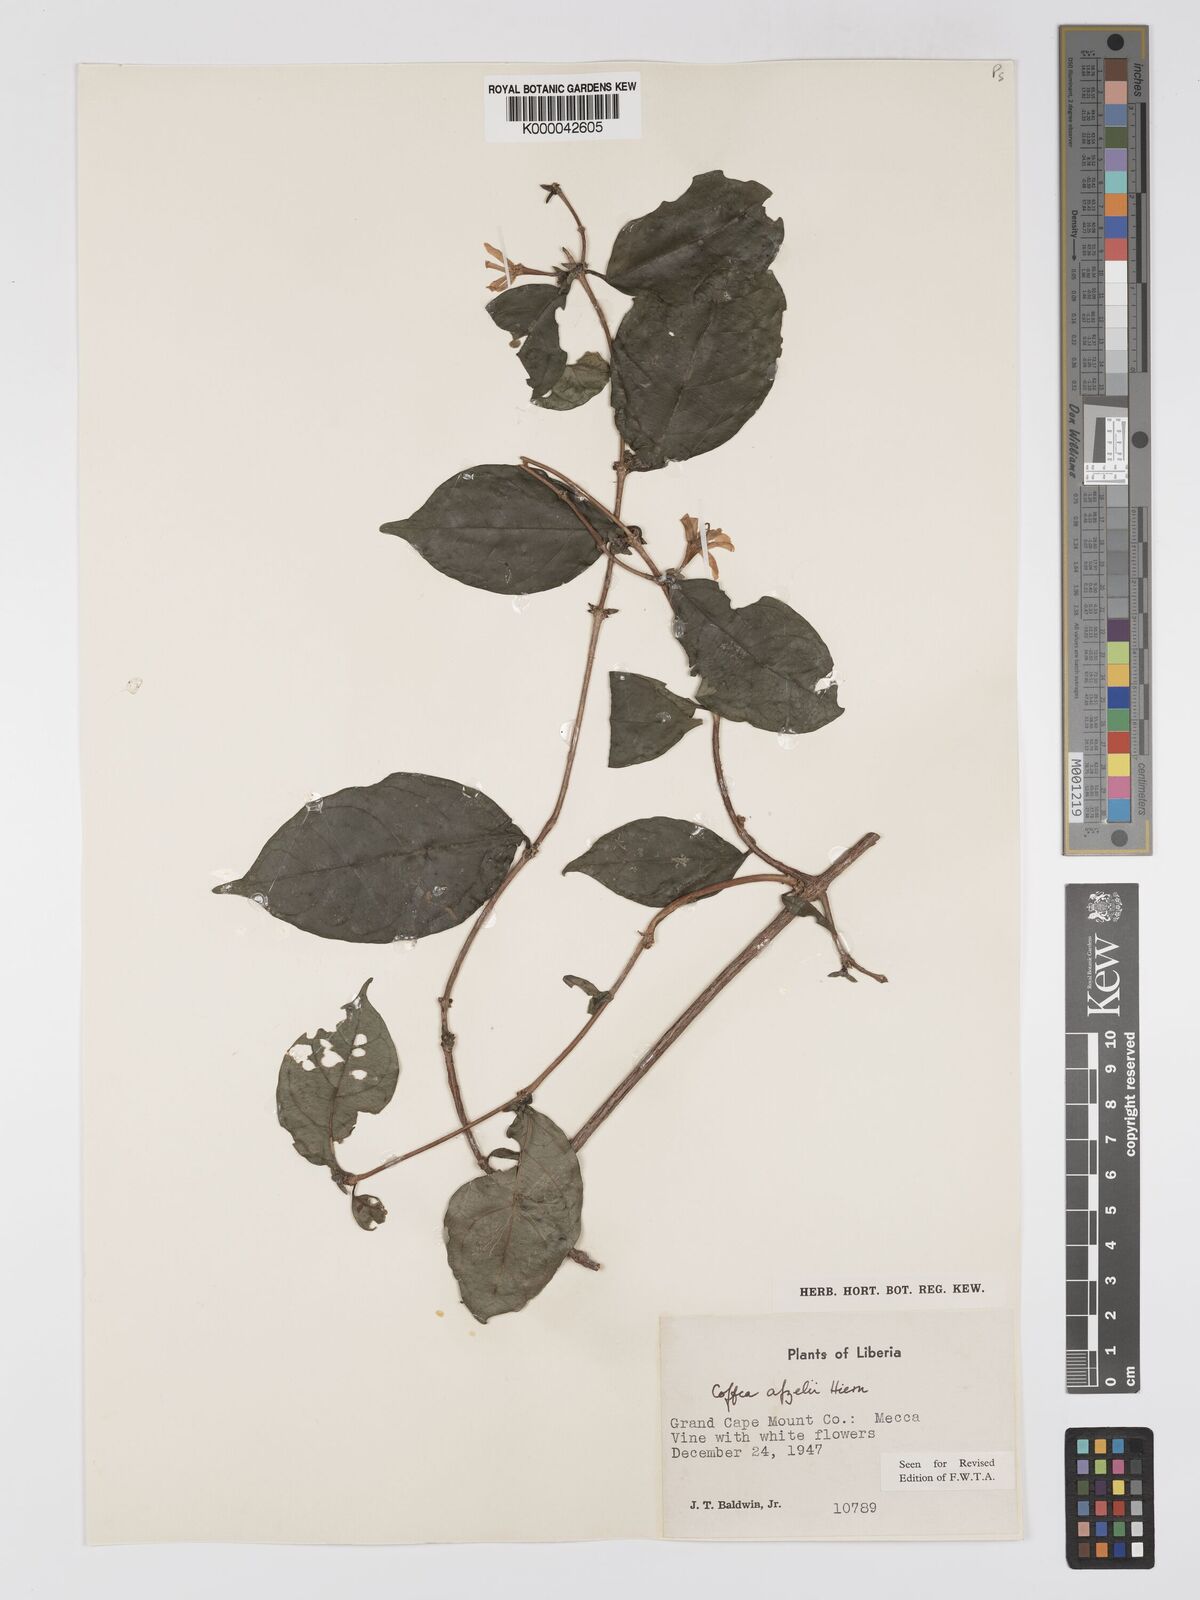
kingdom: Plantae
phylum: Tracheophyta
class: Magnoliopsida
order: Gentianales
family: Rubiaceae
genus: Argocoffeopsis
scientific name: Argocoffeopsis afzelii
